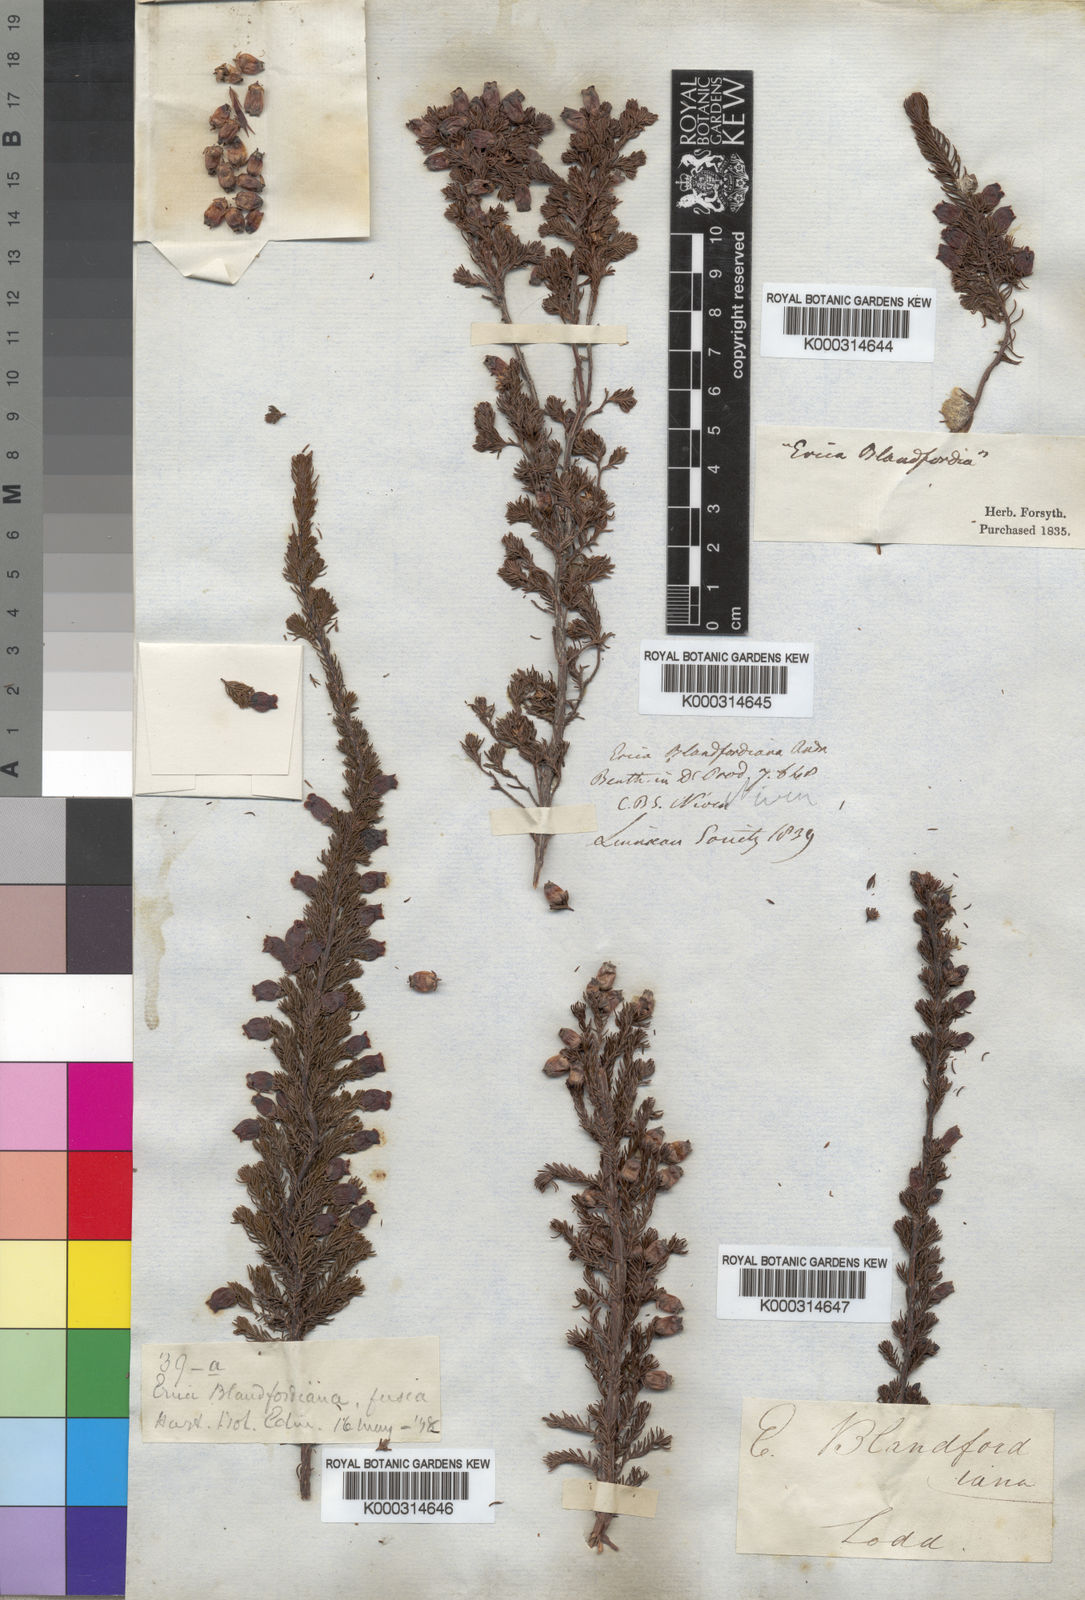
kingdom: Plantae
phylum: Tracheophyta
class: Magnoliopsida
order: Ericales
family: Ericaceae
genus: Erica
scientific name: Erica blandfordia
